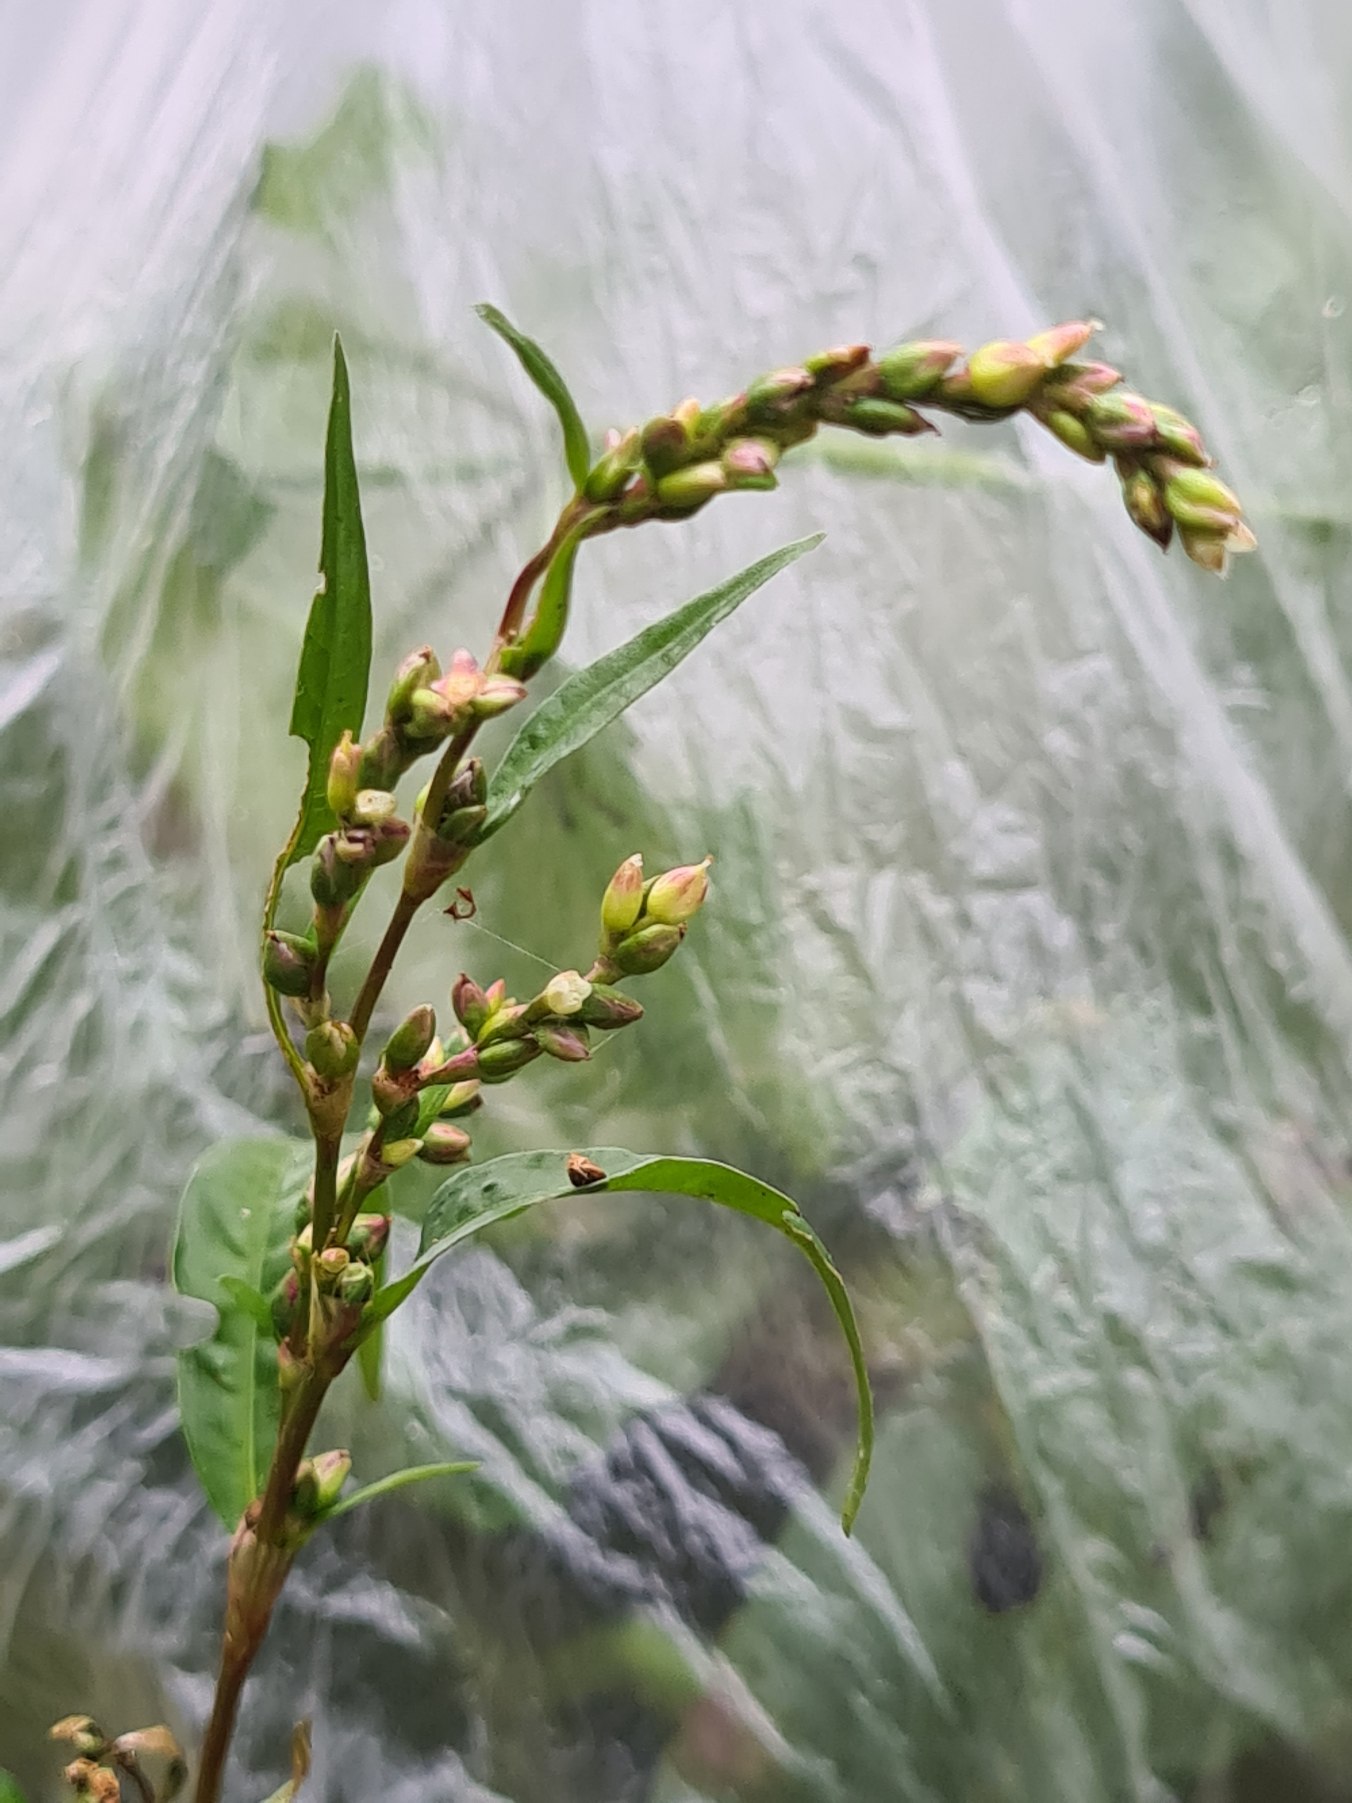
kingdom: Plantae
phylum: Tracheophyta
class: Magnoliopsida
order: Caryophyllales
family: Polygonaceae
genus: Persicaria
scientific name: Persicaria hydropiper
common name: Bidende pileurt
